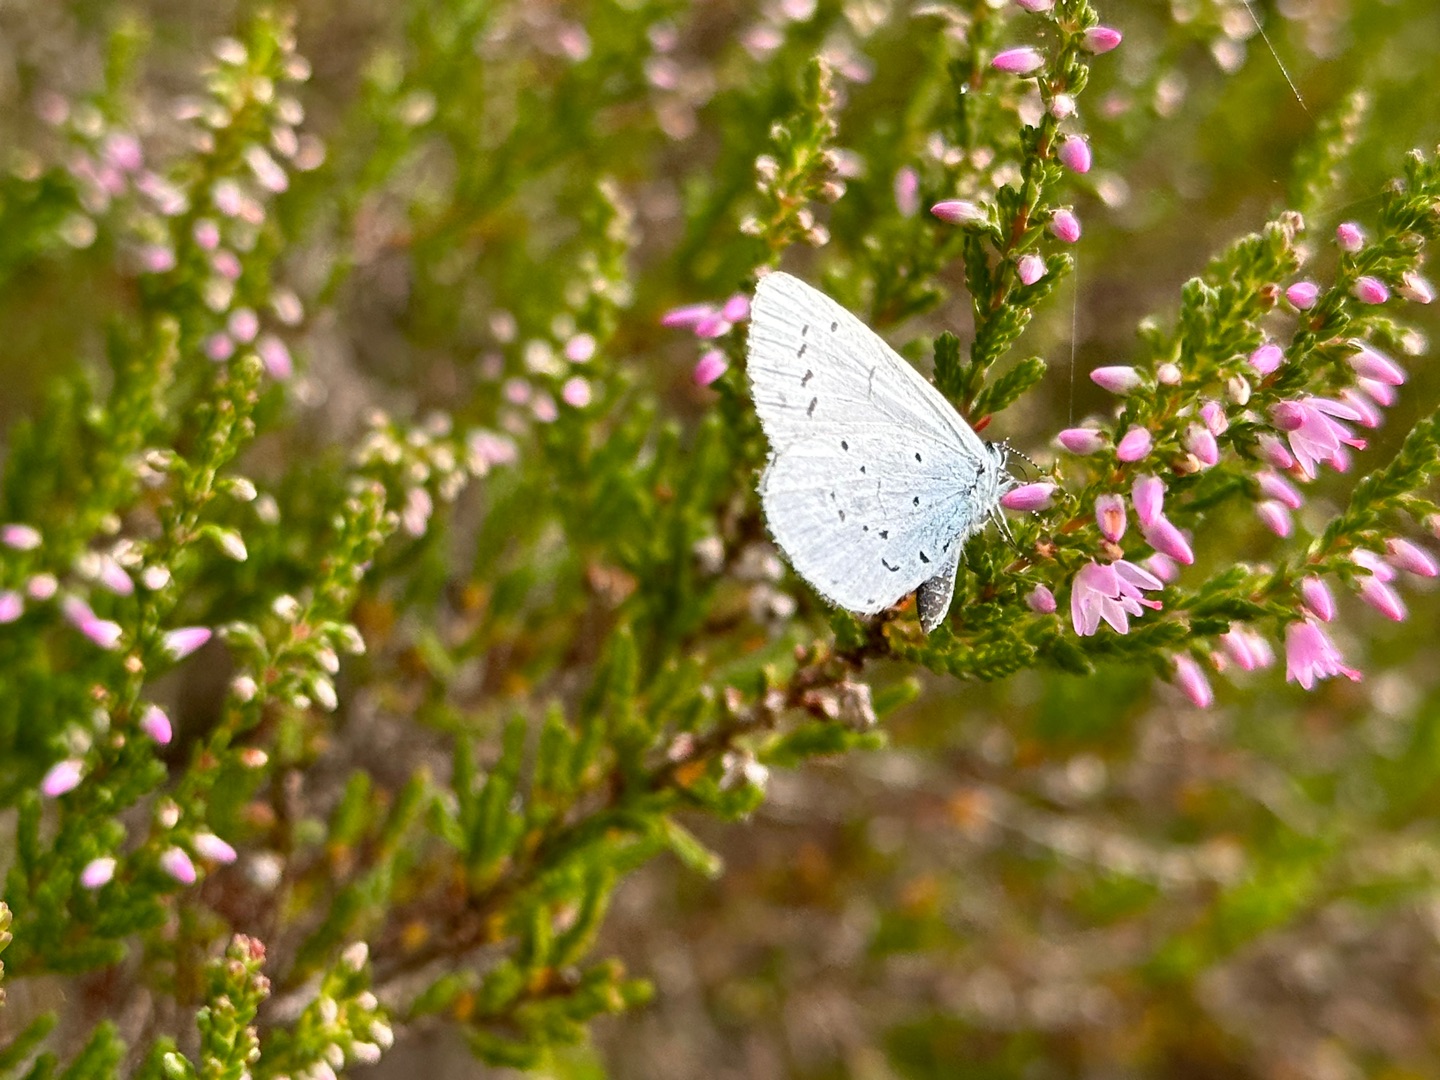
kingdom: Animalia
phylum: Arthropoda
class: Insecta
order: Lepidoptera
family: Lycaenidae
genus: Celastrina
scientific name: Celastrina argiolus
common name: Skovblåfugl
